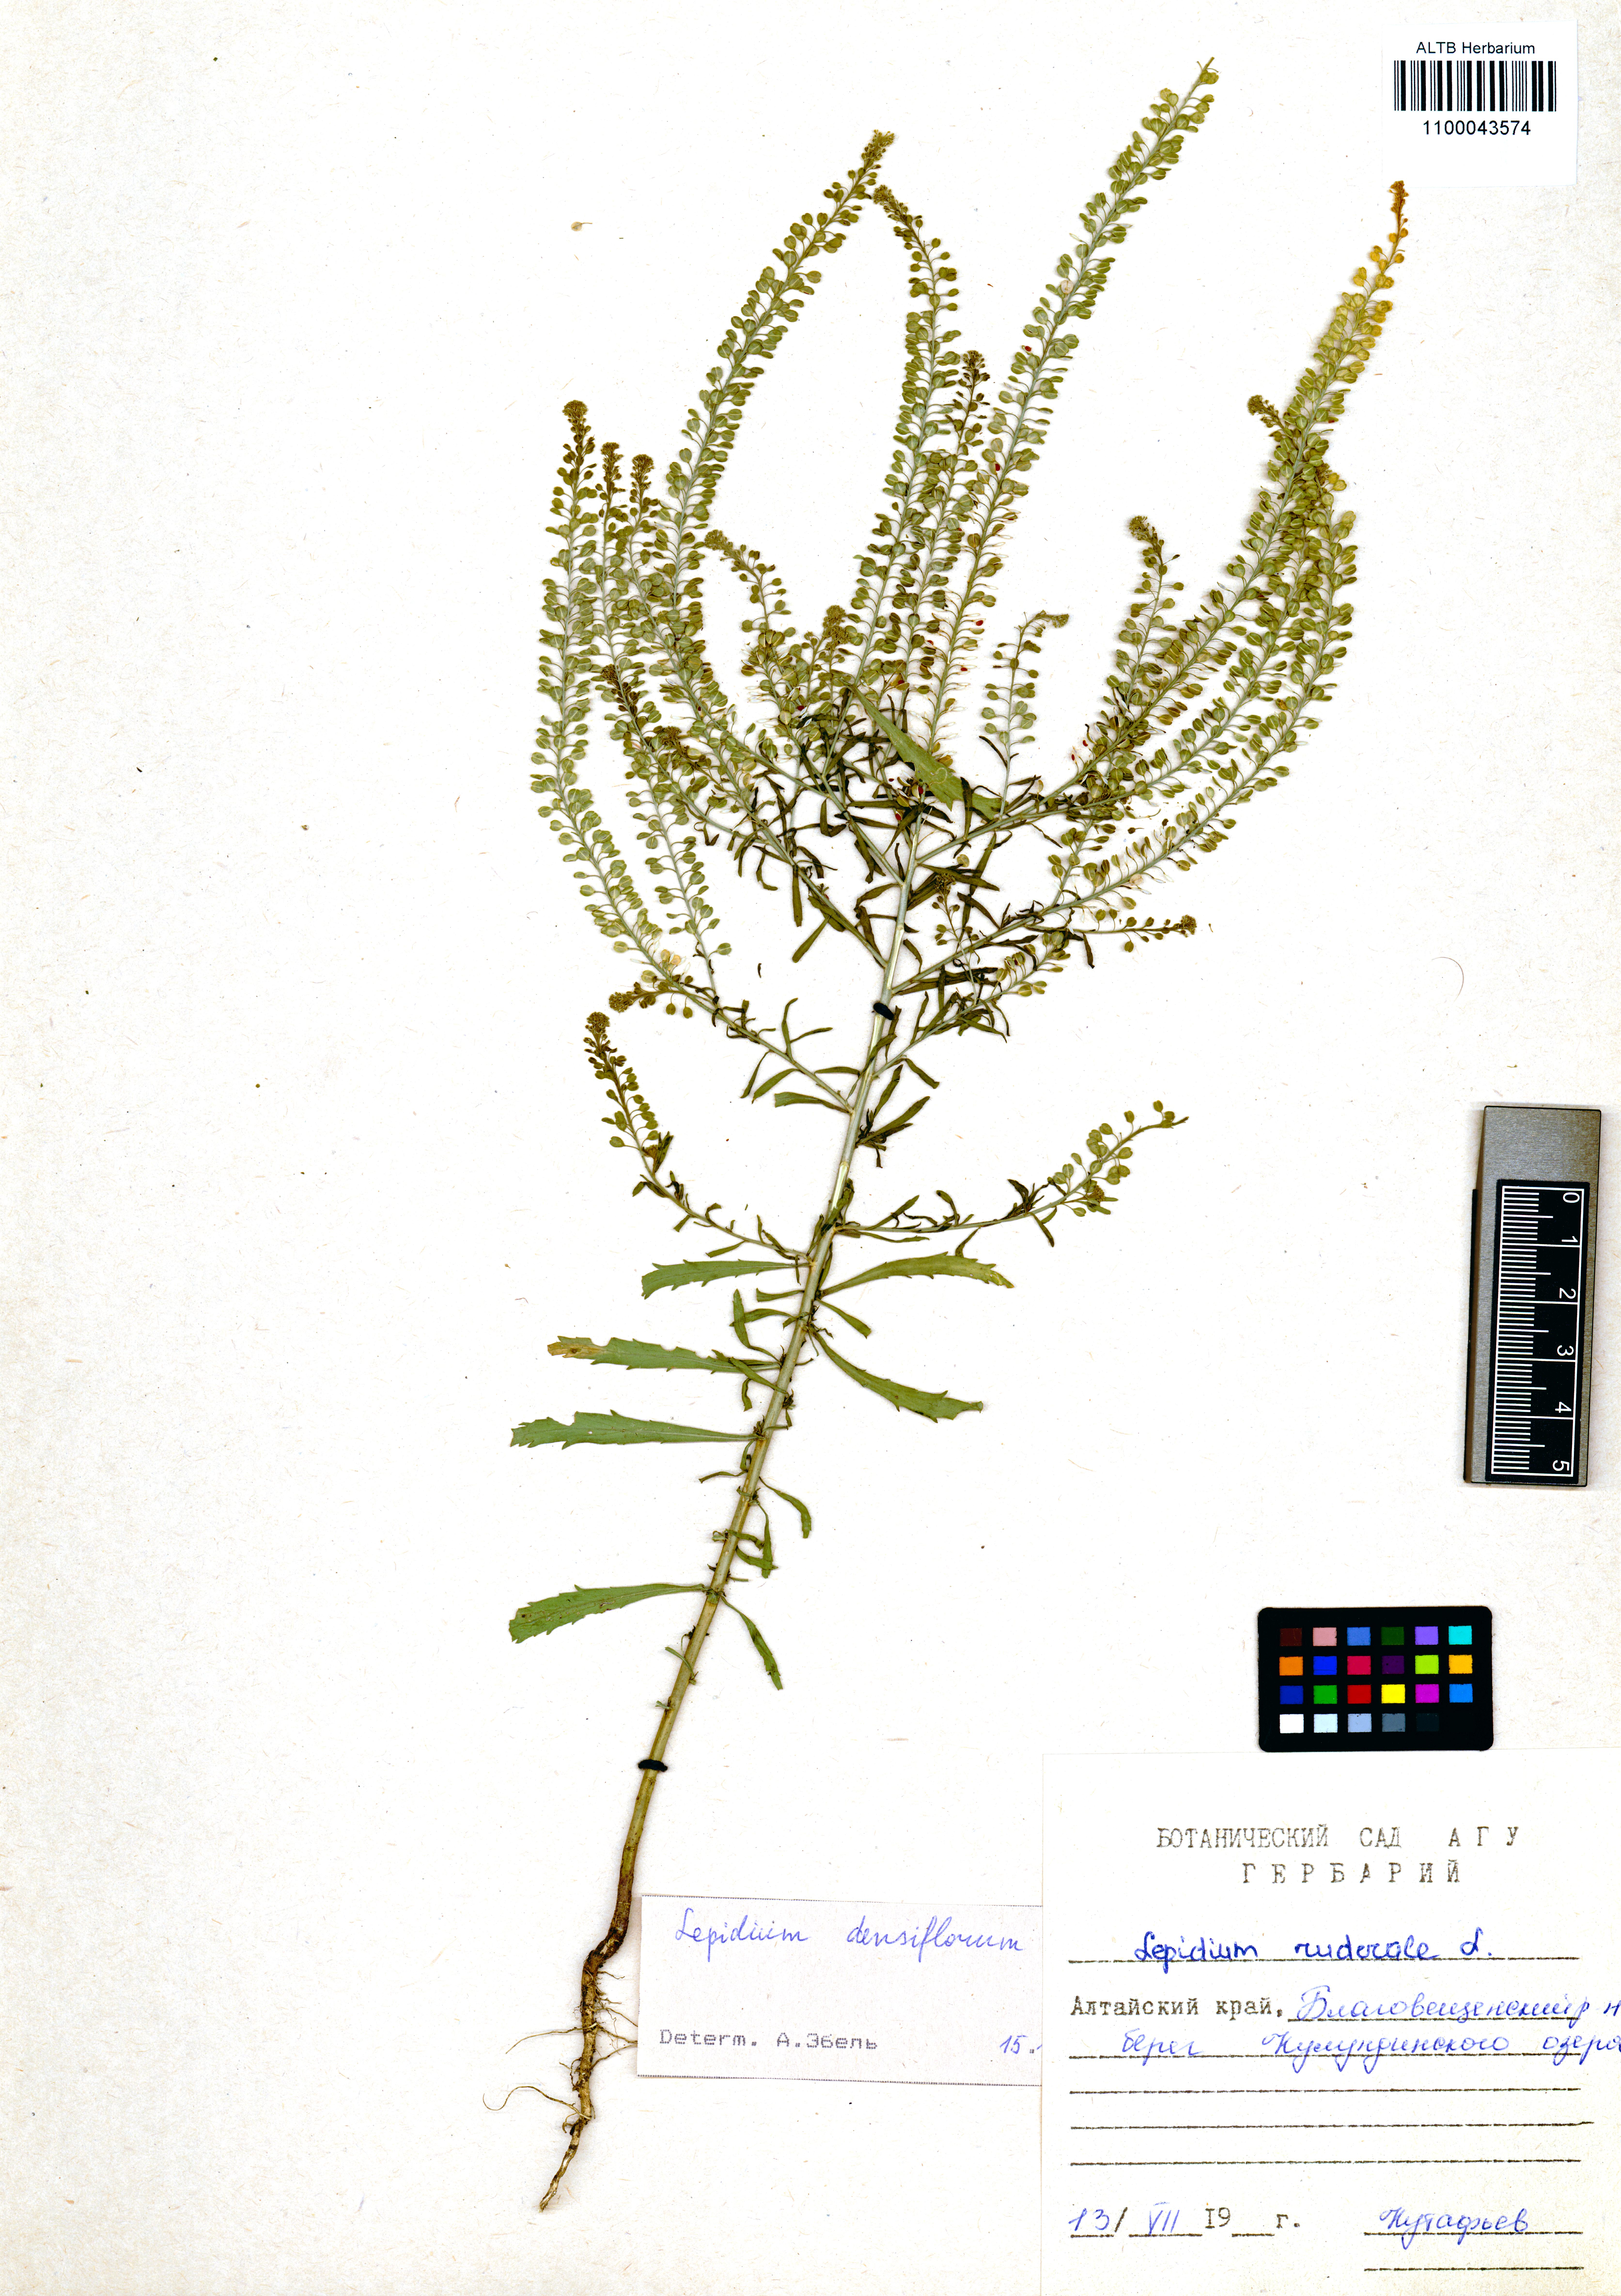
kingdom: Plantae
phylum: Tracheophyta
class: Magnoliopsida
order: Brassicales
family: Brassicaceae
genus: Lepidium
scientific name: Lepidium densiflorum
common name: Miner's pepperwort
